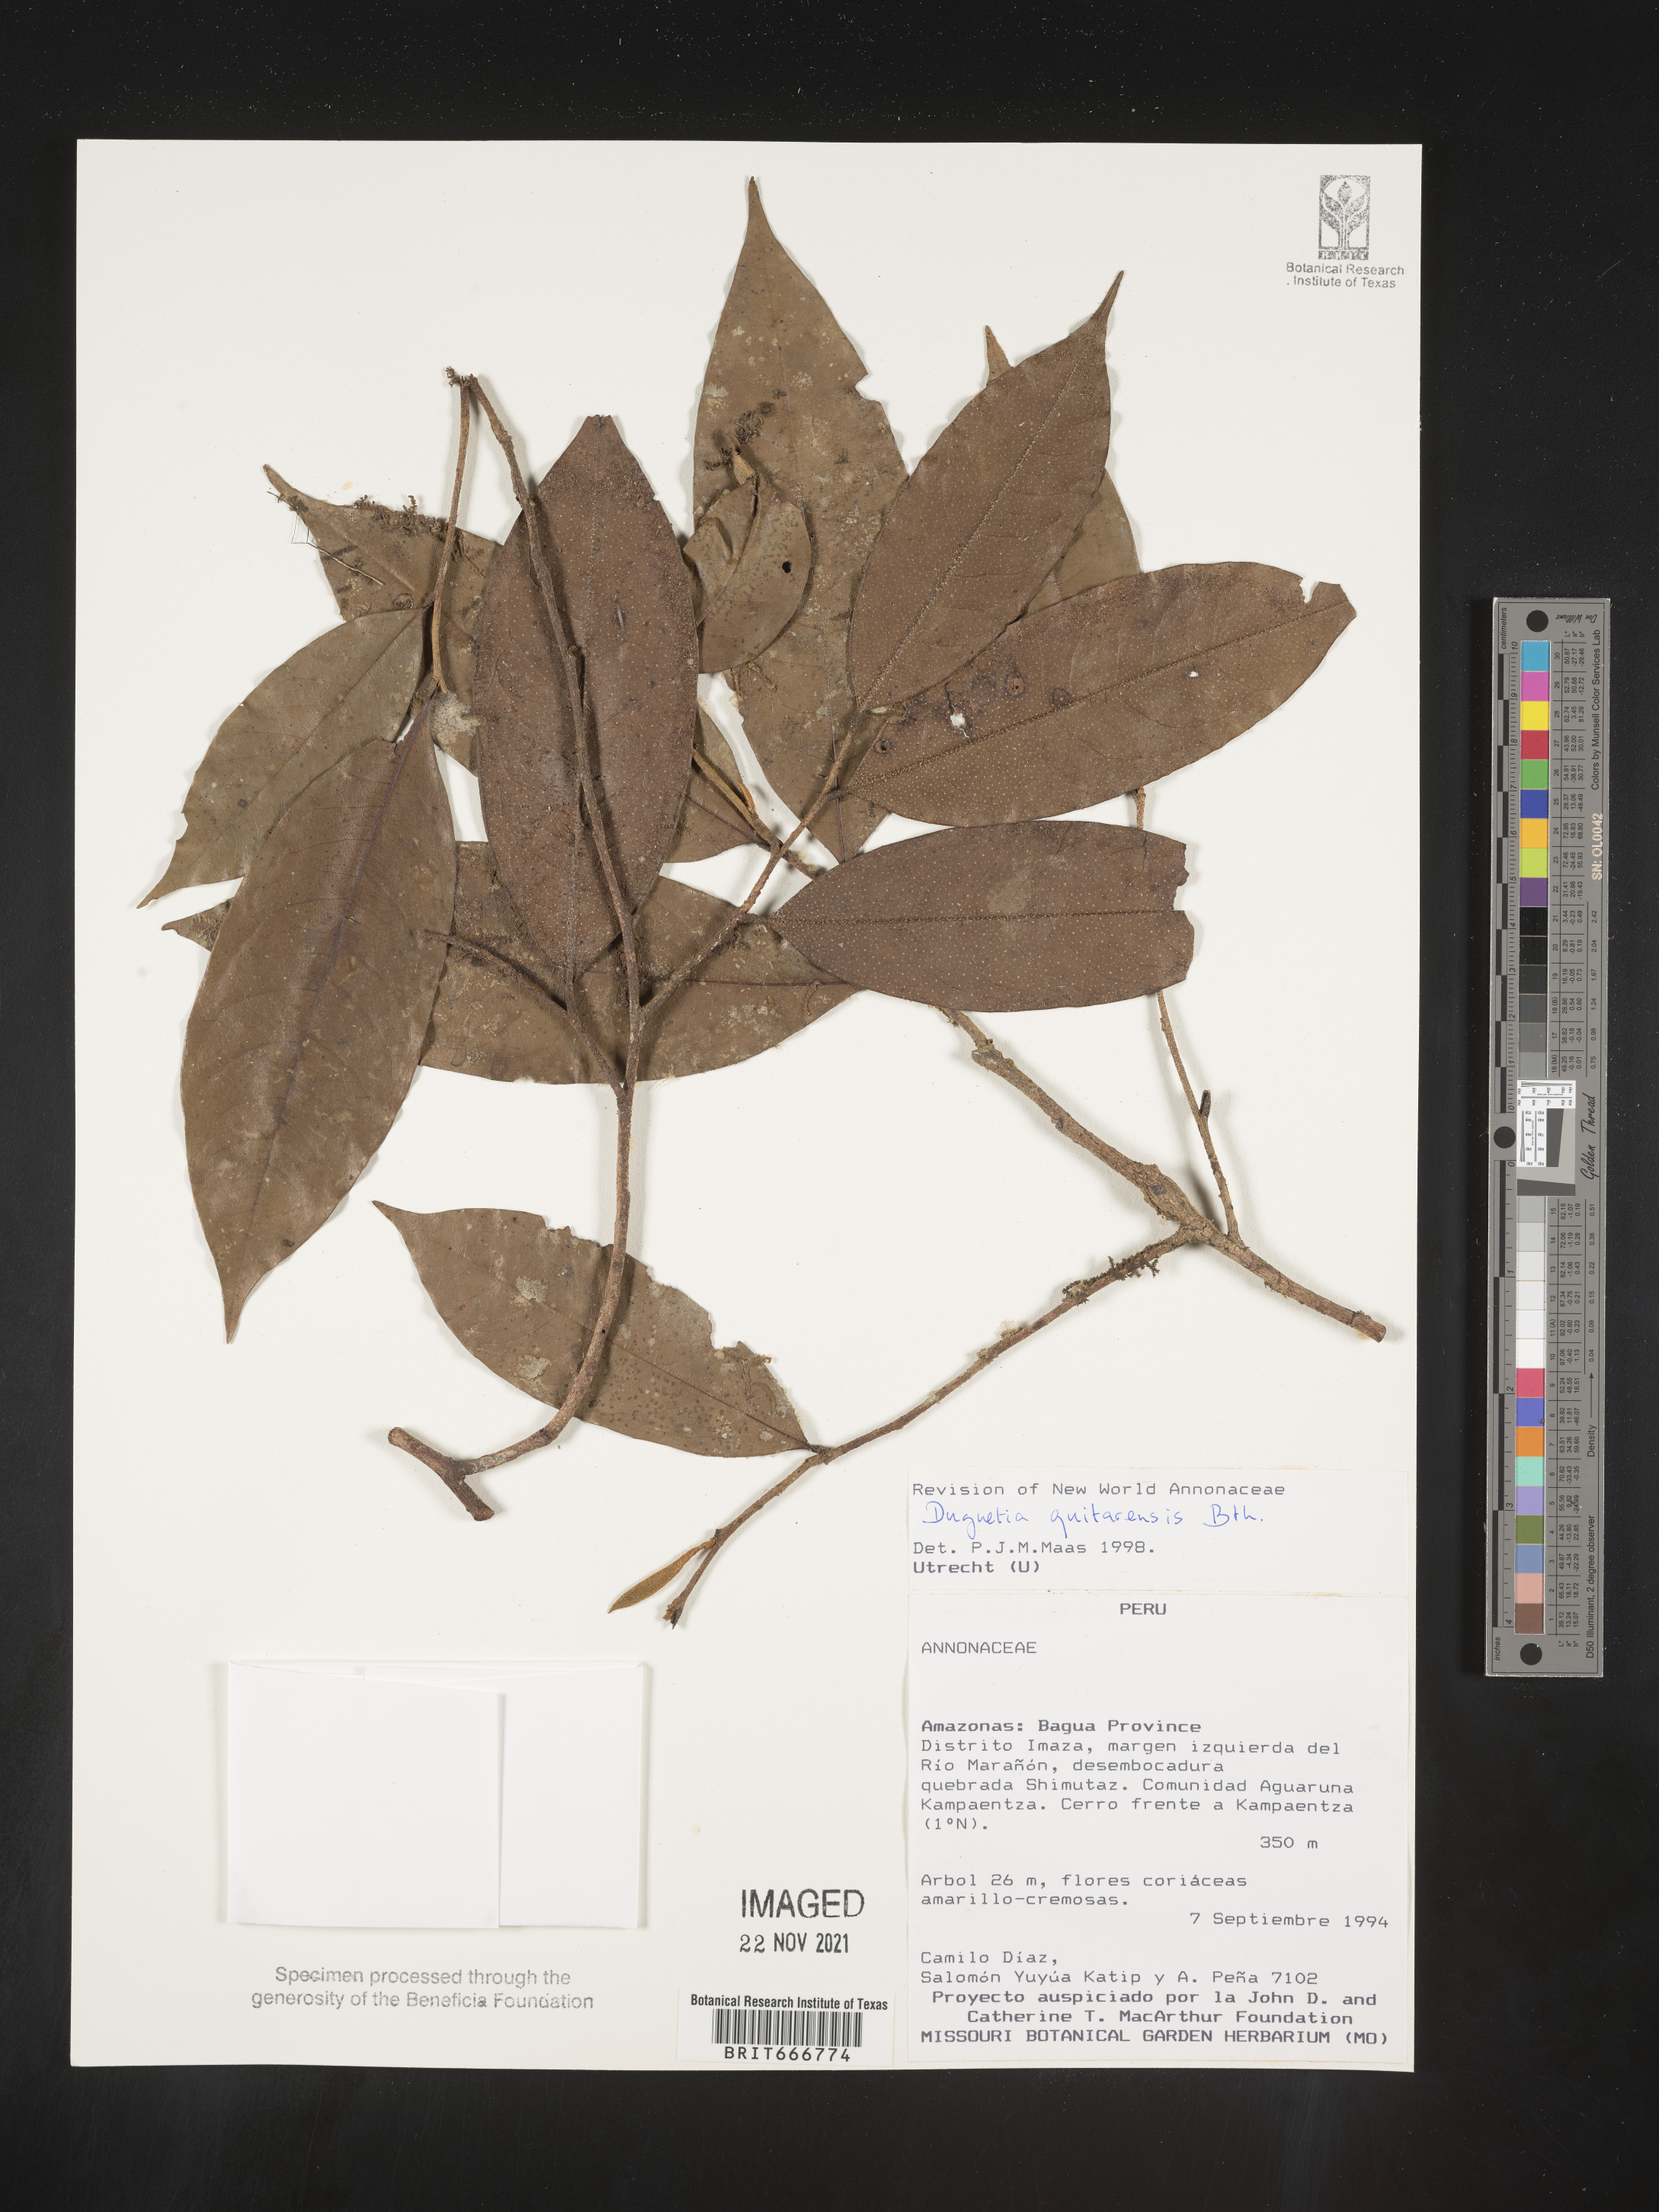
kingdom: Plantae
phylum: Tracheophyta
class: Magnoliopsida
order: Magnoliales
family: Annonaceae
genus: Duguetia
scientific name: Duguetia
